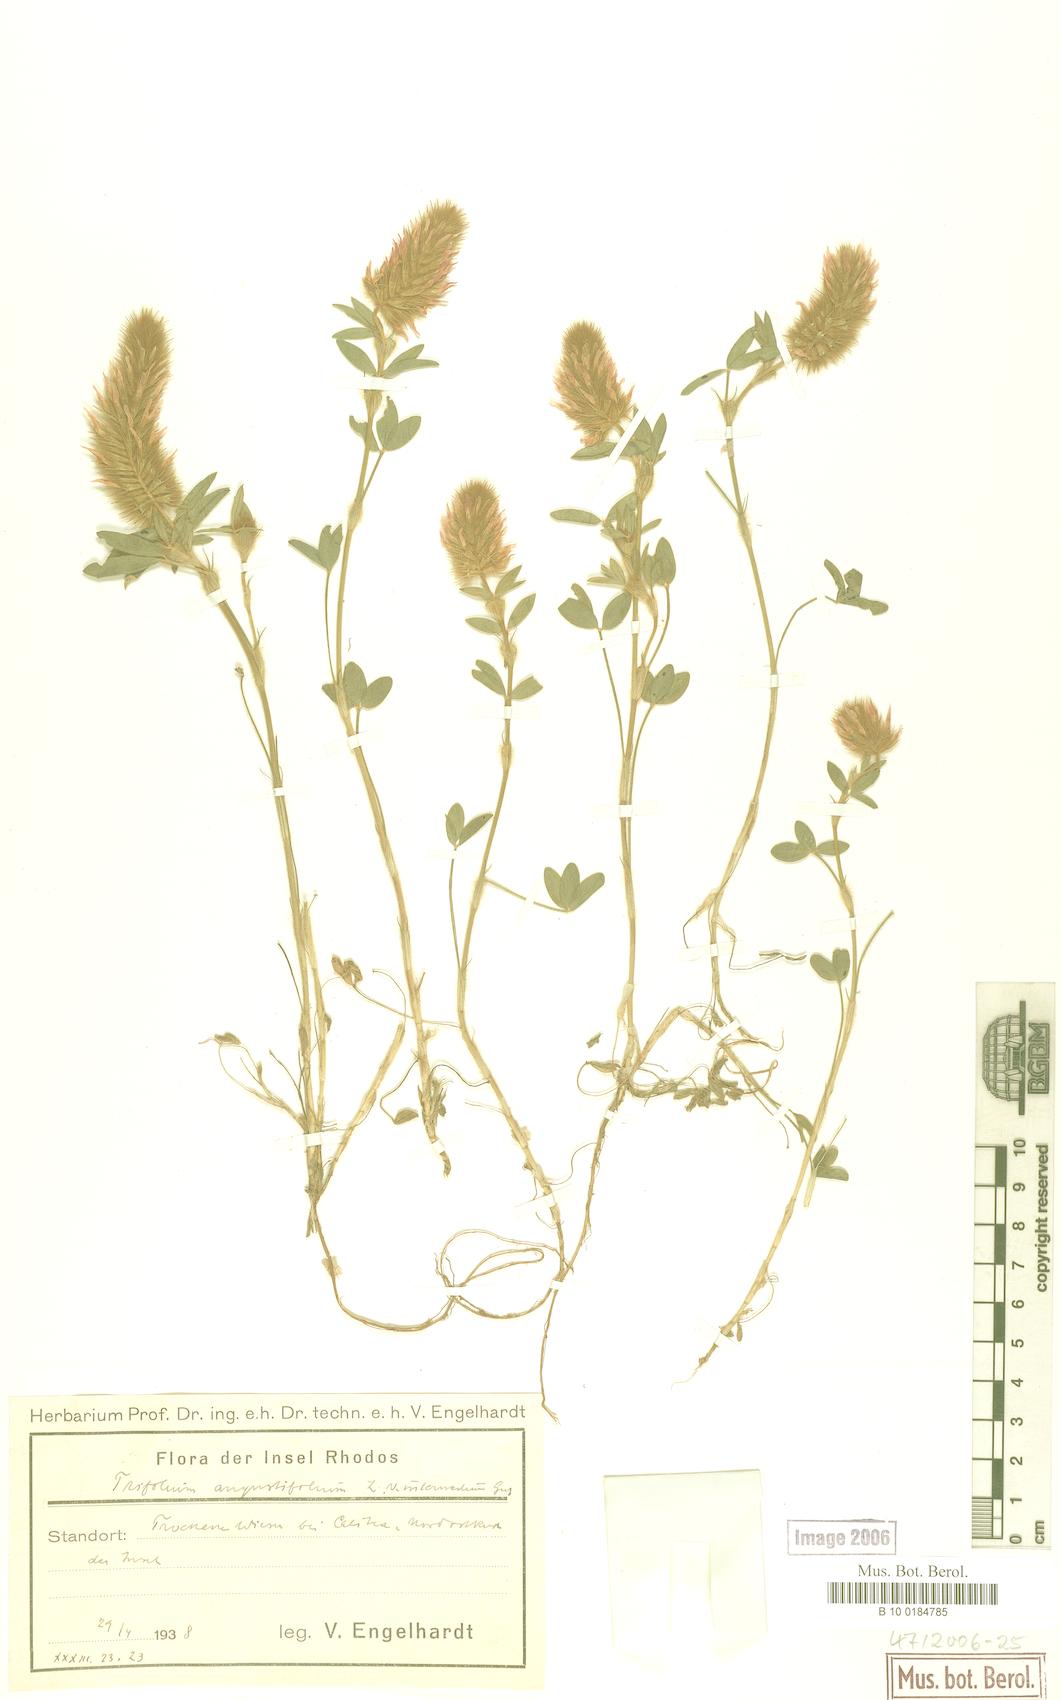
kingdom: Plantae
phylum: Tracheophyta
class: Magnoliopsida
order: Fabales
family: Fabaceae
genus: Trifolium
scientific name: Trifolium angustifolium
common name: Narrow clover
